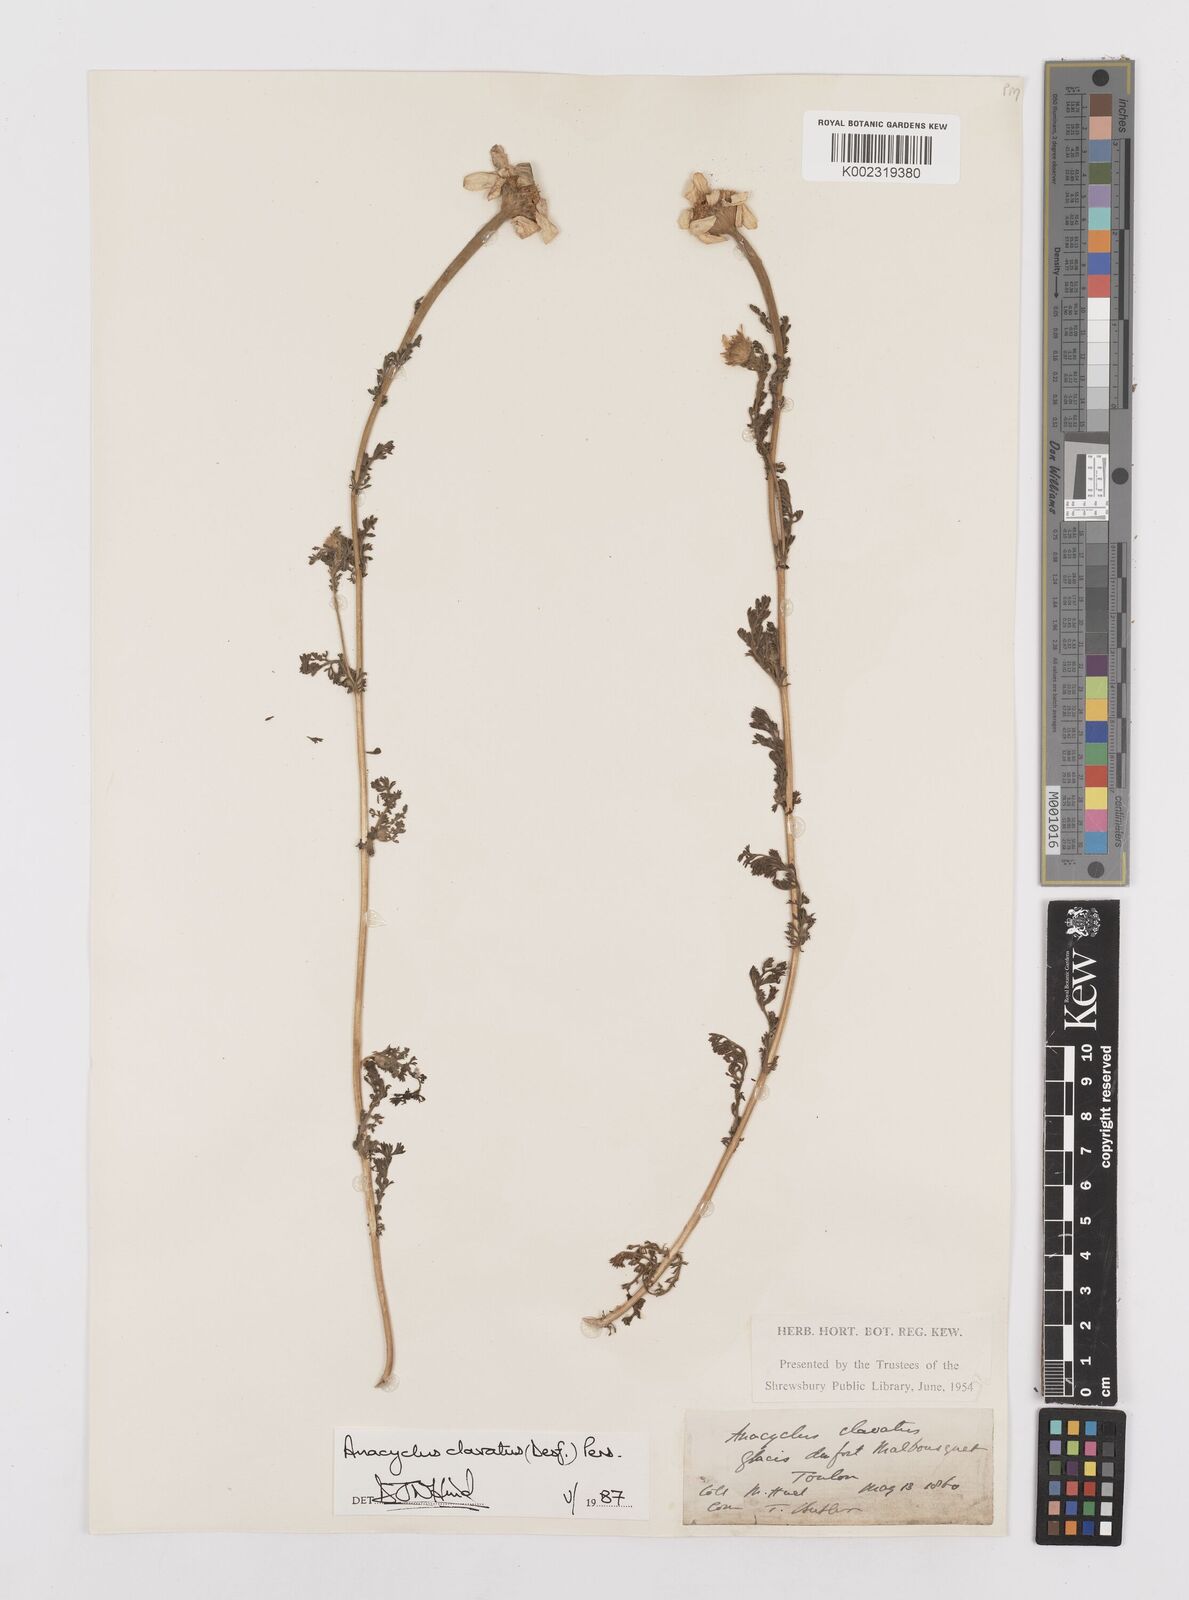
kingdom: Plantae
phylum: Tracheophyta
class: Magnoliopsida
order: Asterales
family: Asteraceae
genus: Anacyclus
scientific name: Anacyclus clavatus
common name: Whitebuttons
